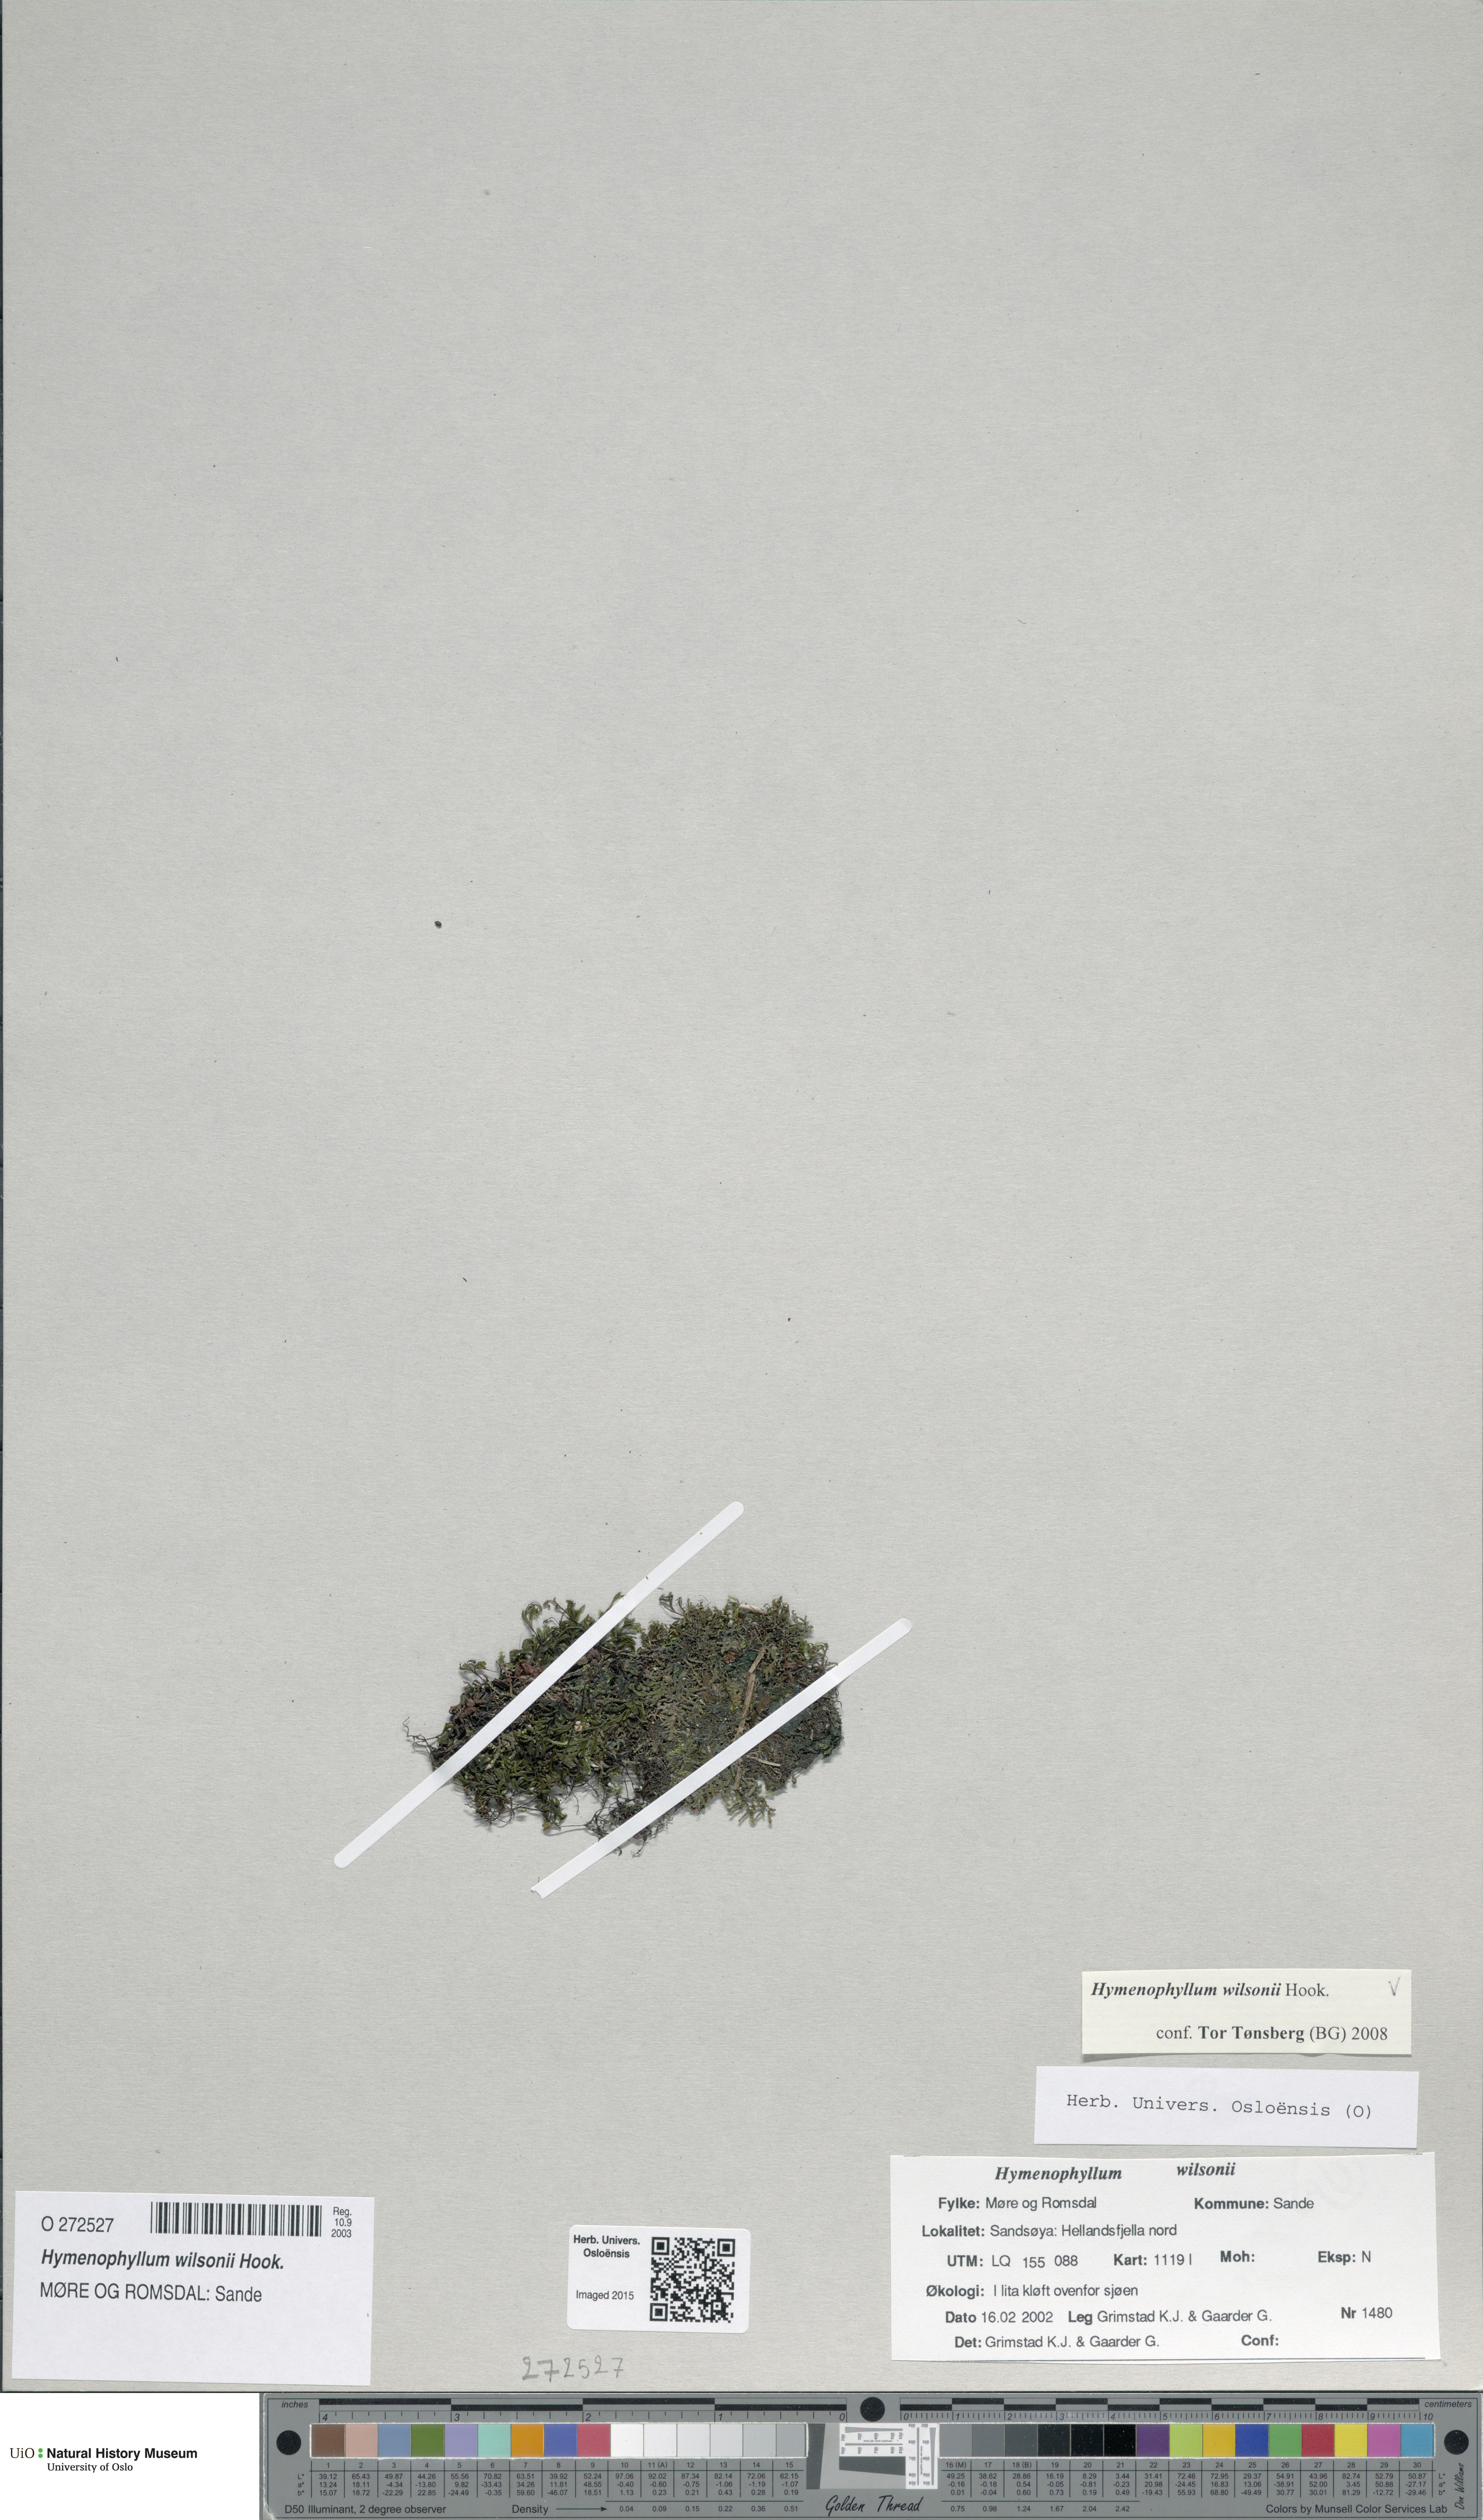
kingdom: Plantae
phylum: Tracheophyta
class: Polypodiopsida
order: Hymenophyllales
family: Hymenophyllaceae
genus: Hymenophyllum
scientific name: Hymenophyllum peltatum
